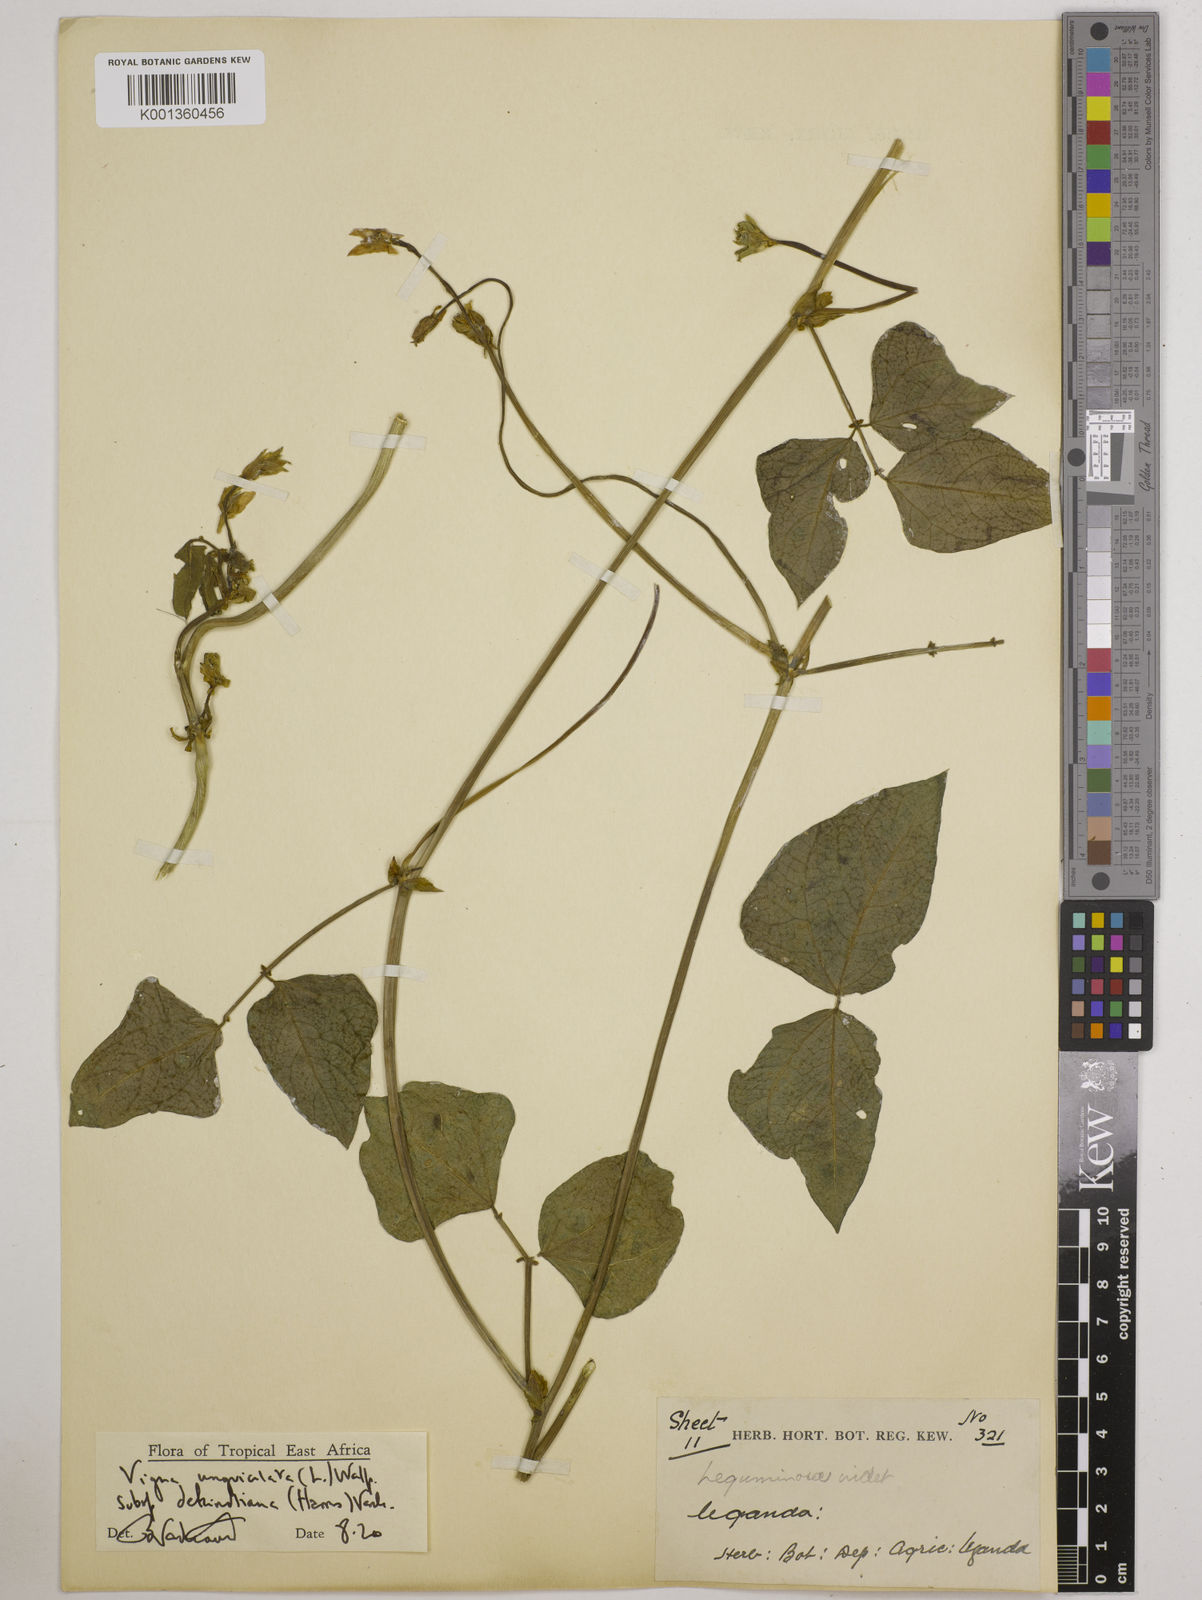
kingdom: Plantae
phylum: Tracheophyta
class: Magnoliopsida
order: Fabales
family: Fabaceae
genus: Vigna
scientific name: Vigna unguiculata
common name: Cowpea
